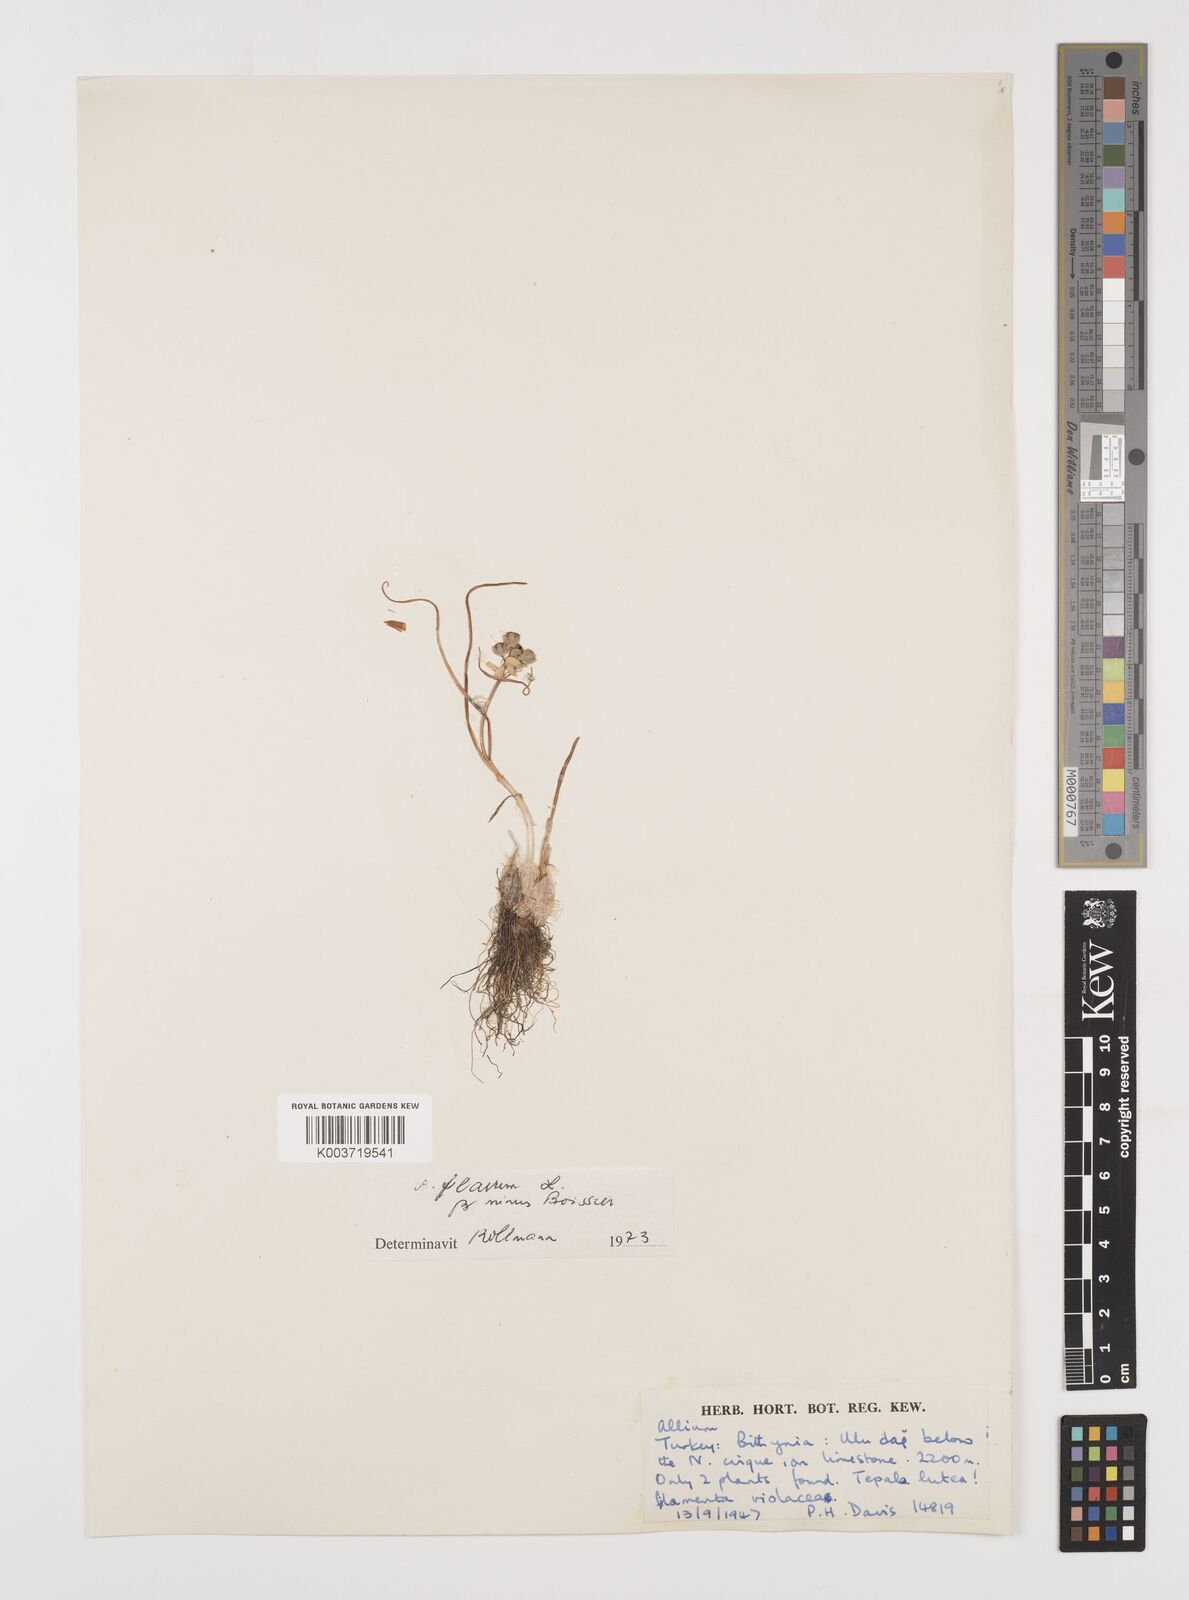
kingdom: Plantae
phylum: Tracheophyta
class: Liliopsida
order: Asparagales
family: Amaryllidaceae
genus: Allium
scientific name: Allium flavum
